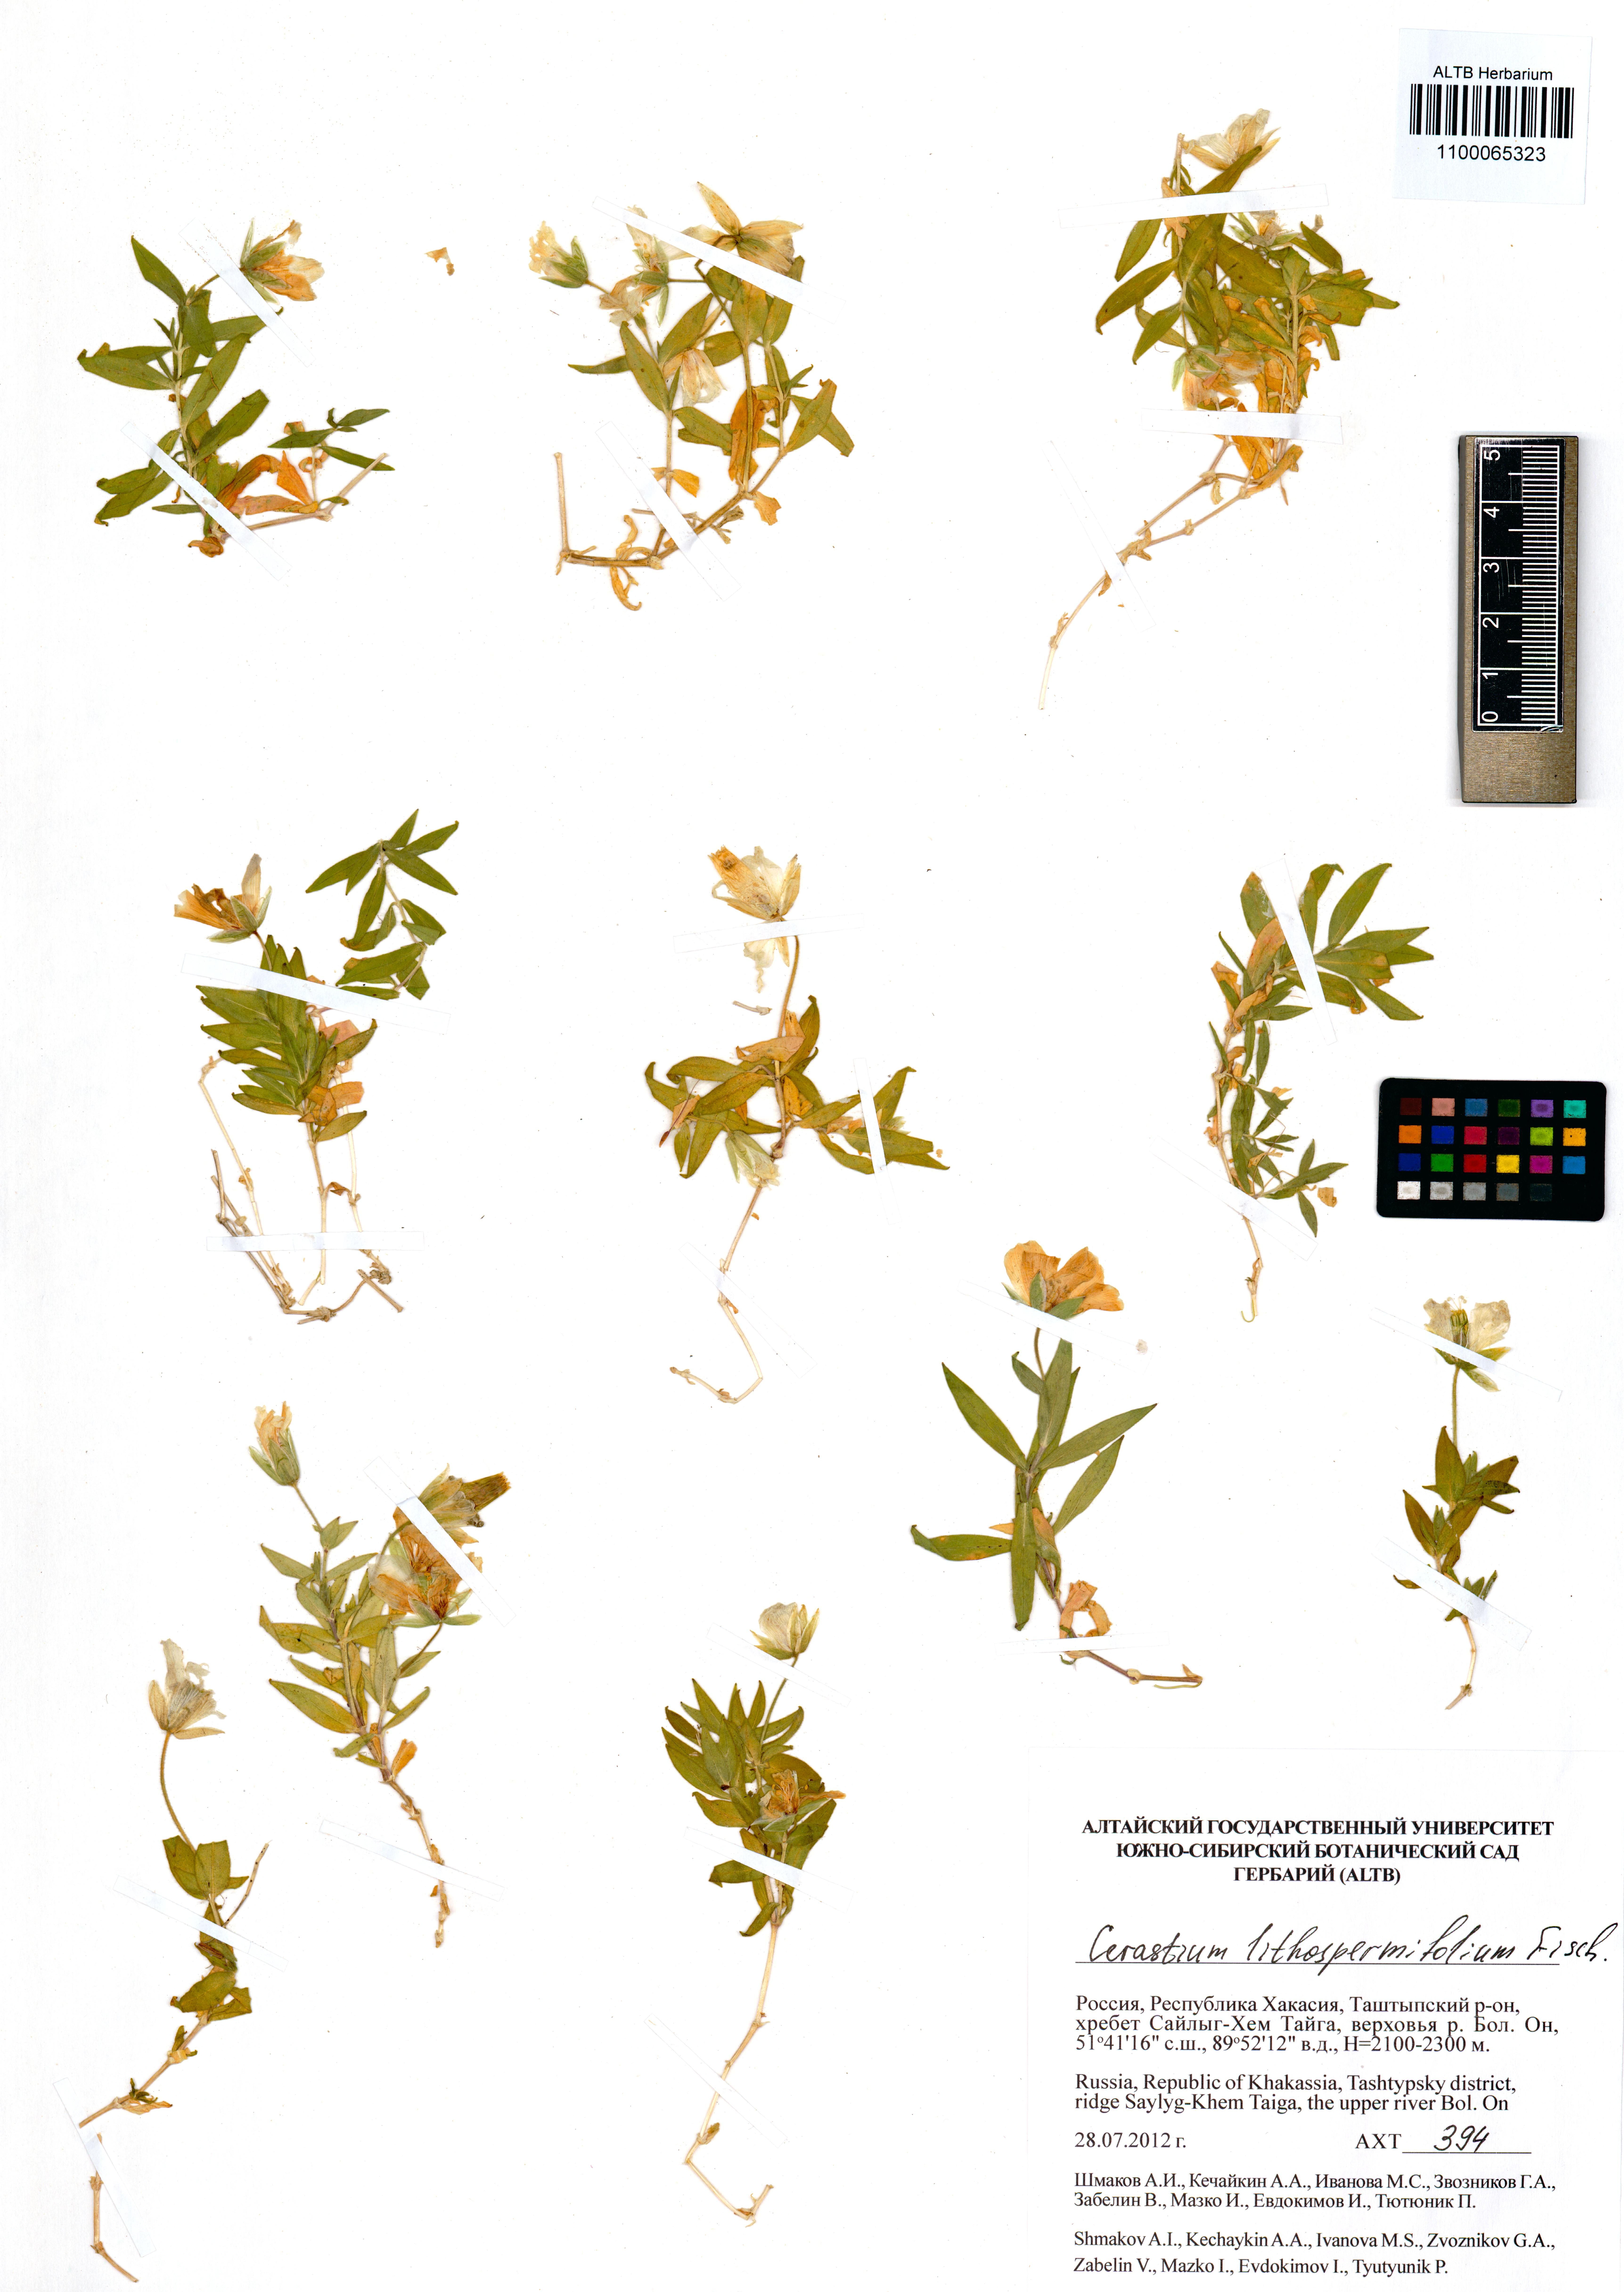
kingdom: Plantae
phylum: Tracheophyta
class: Magnoliopsida
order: Caryophyllales
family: Caryophyllaceae
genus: Cerastium
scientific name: Cerastium lithospermifolium
